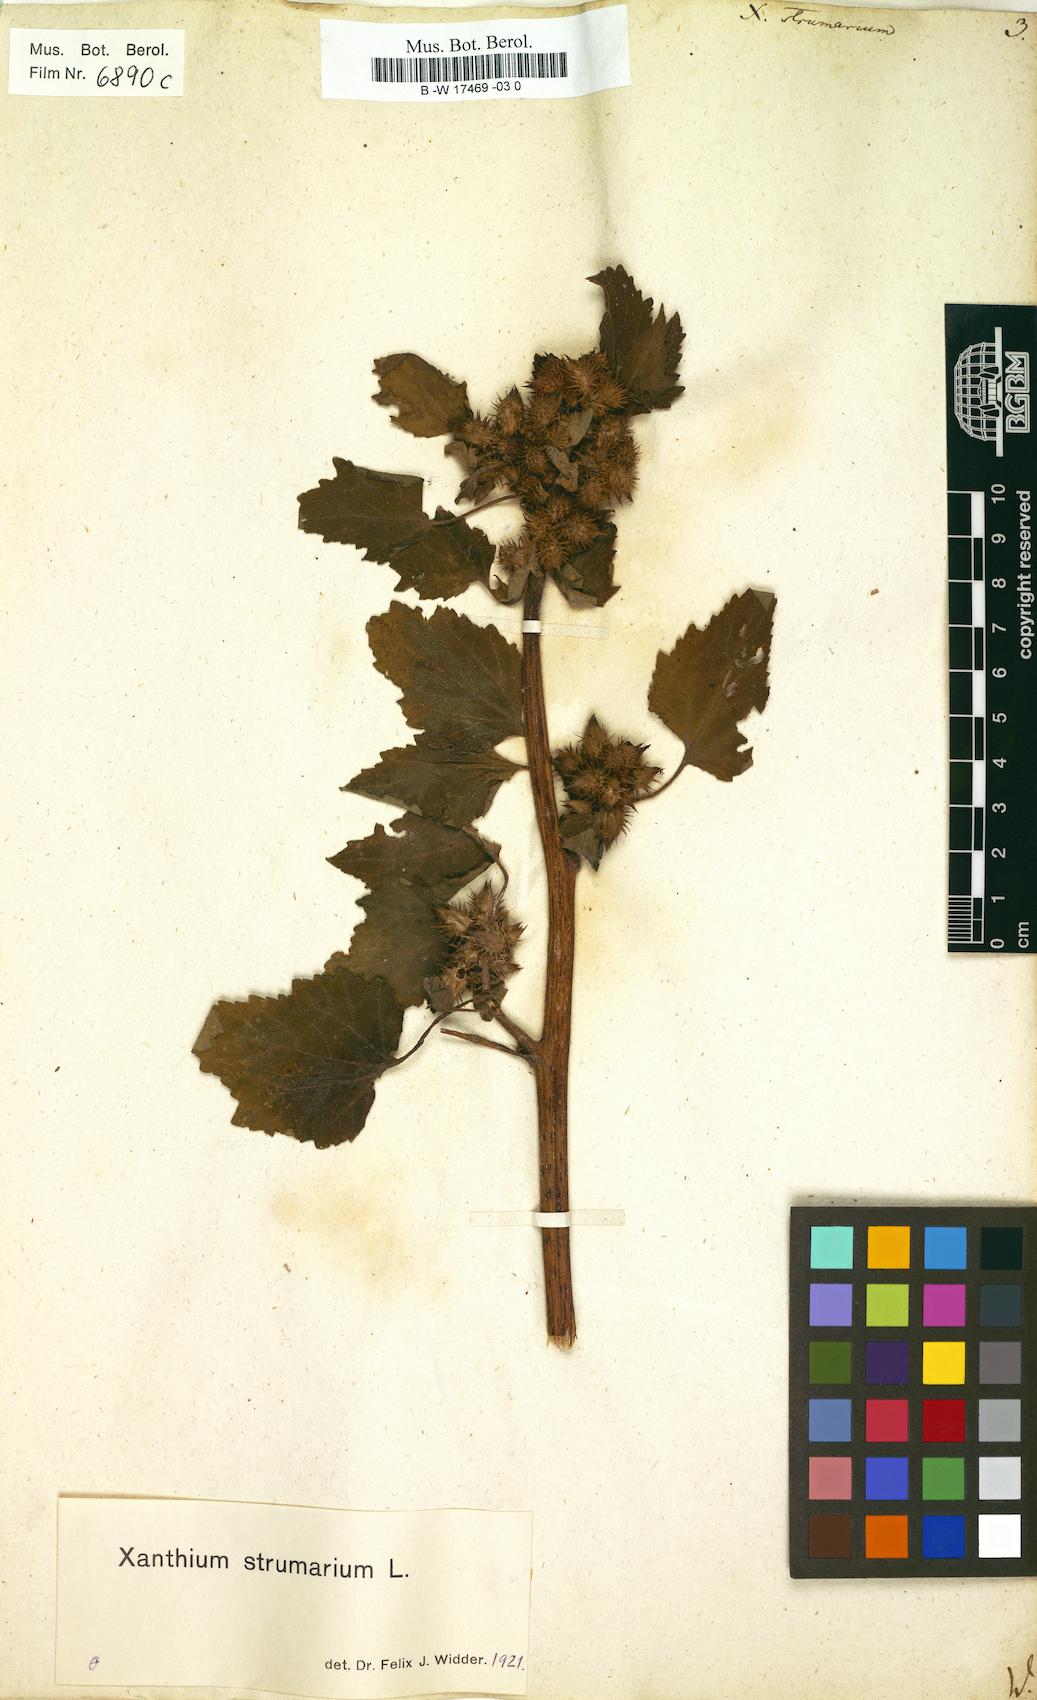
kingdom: Plantae
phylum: Tracheophyta
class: Magnoliopsida
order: Asterales
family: Asteraceae
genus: Xanthium
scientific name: Xanthium strumarium
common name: Rough cocklebur
